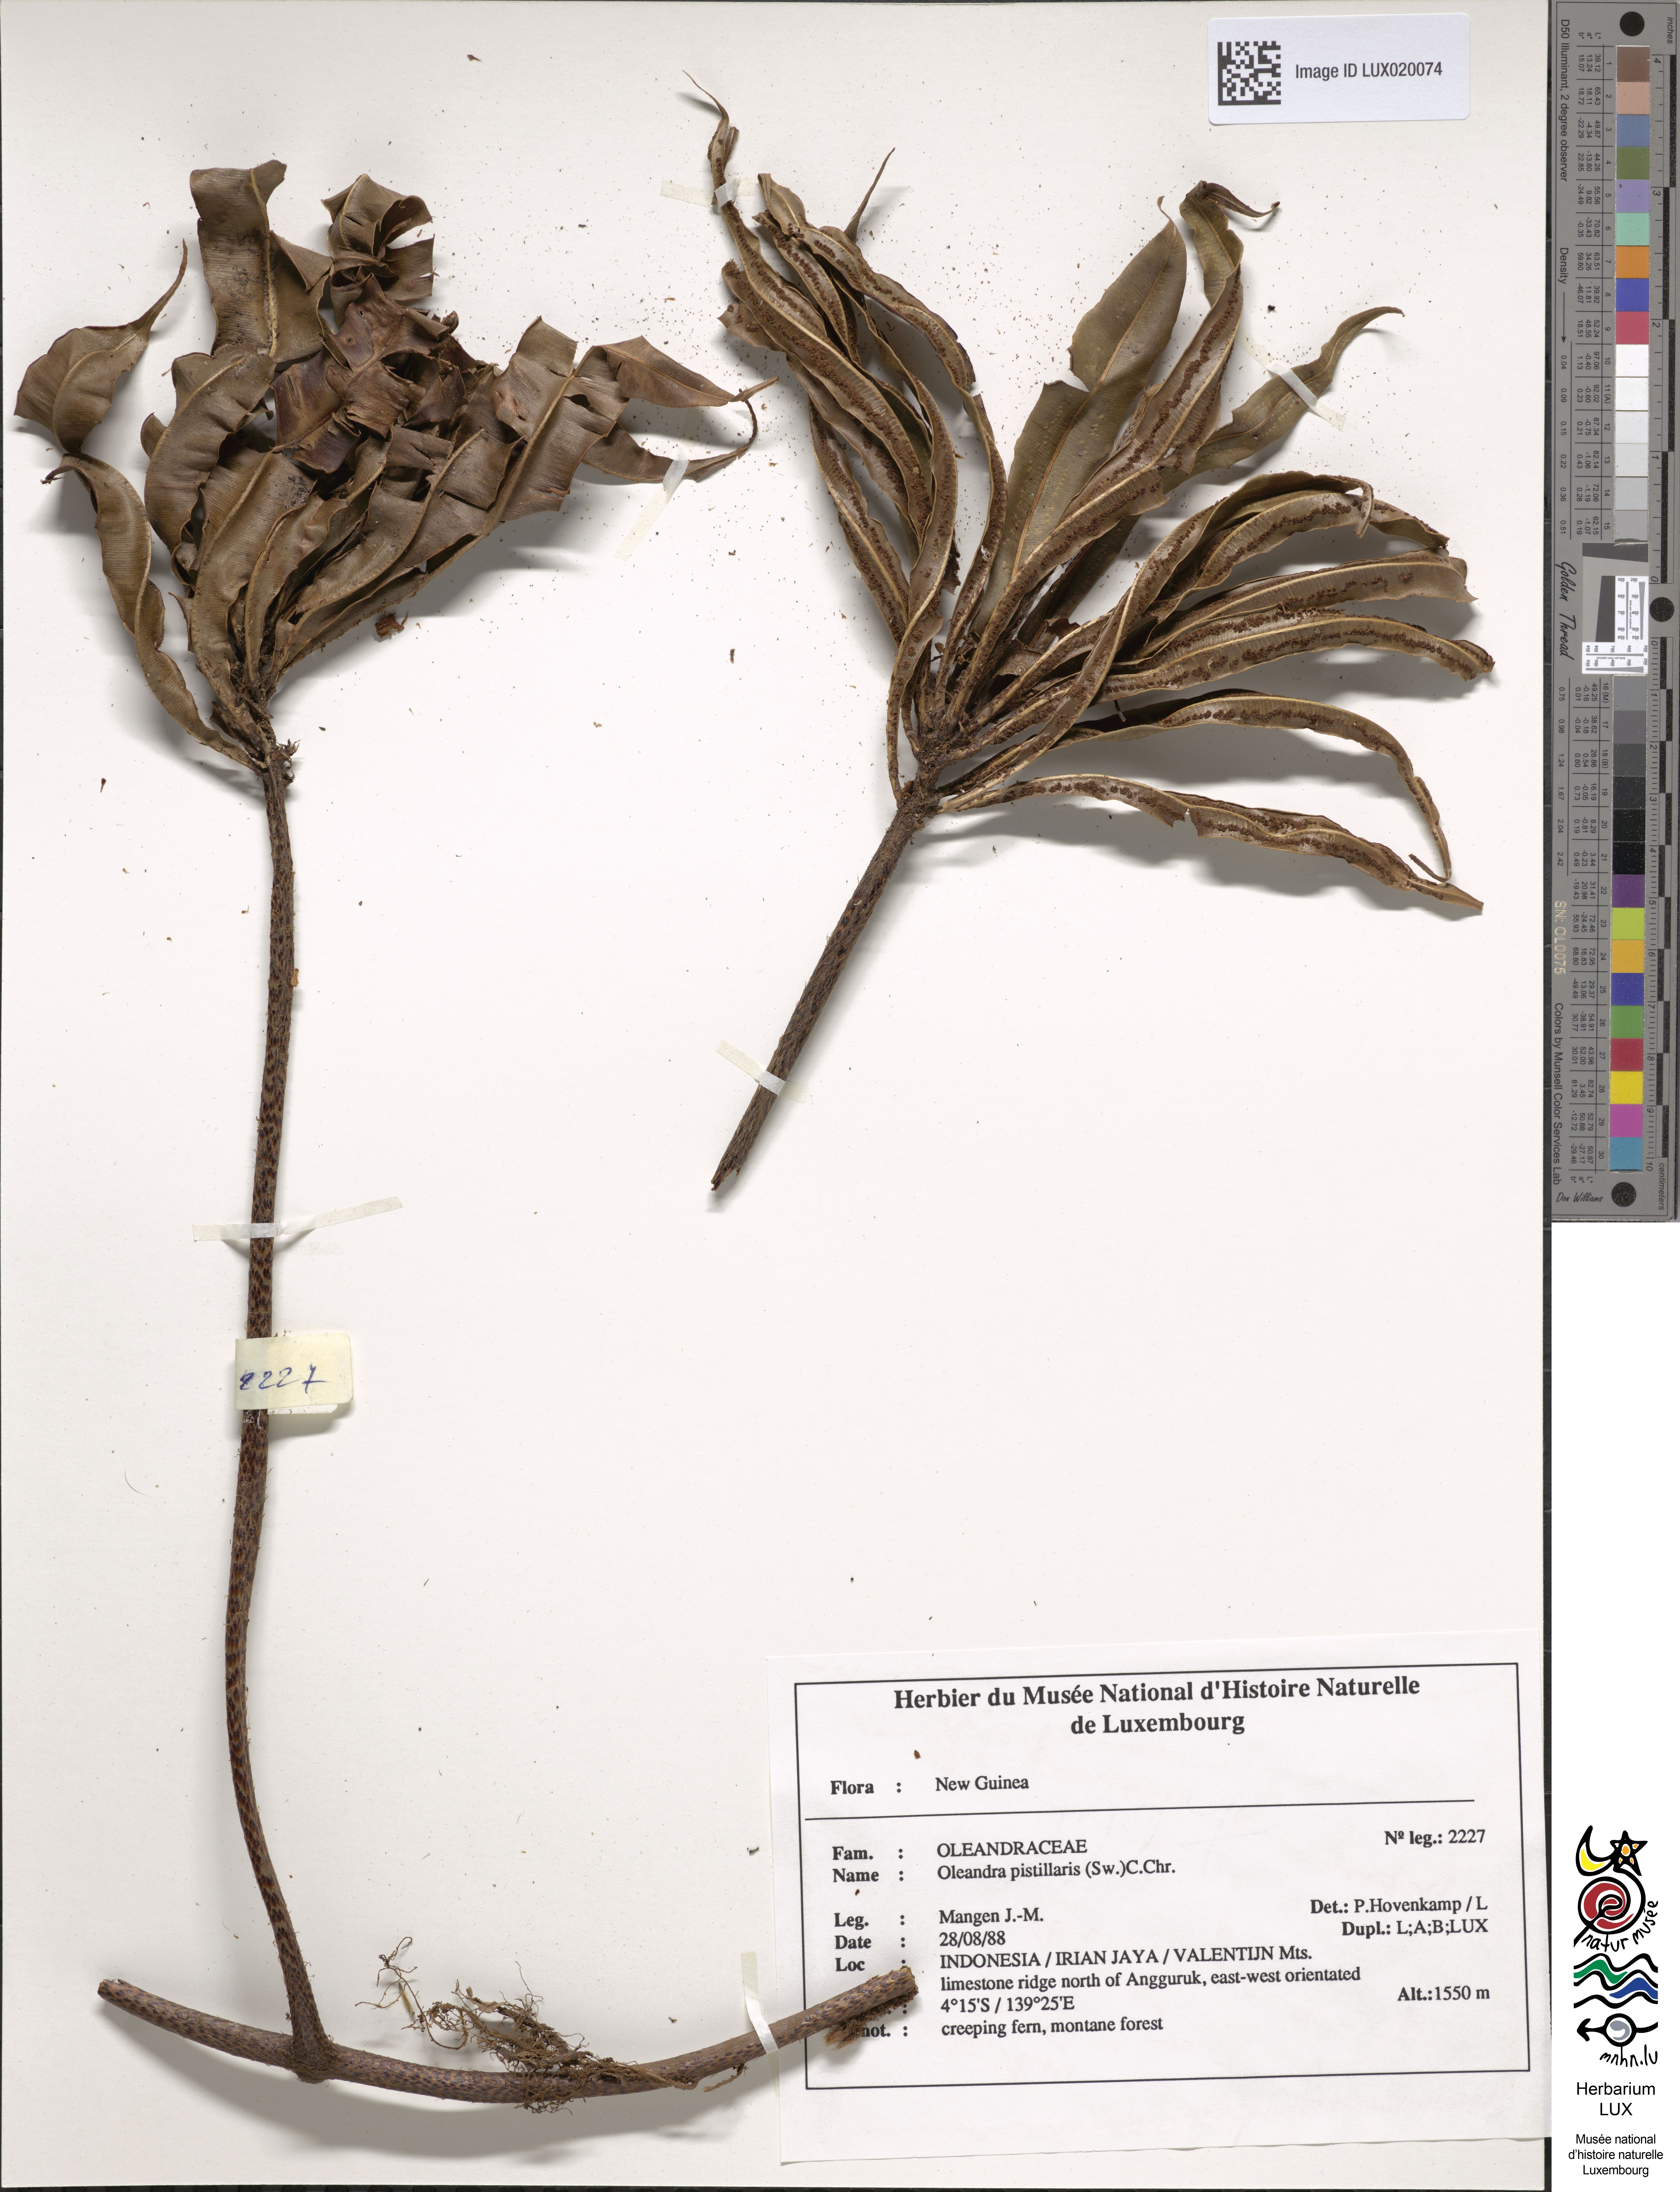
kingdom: Plantae
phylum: Tracheophyta
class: Polypodiopsida
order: Polypodiales
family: Oleandraceae
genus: Oleandra
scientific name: Oleandra pistillaris
